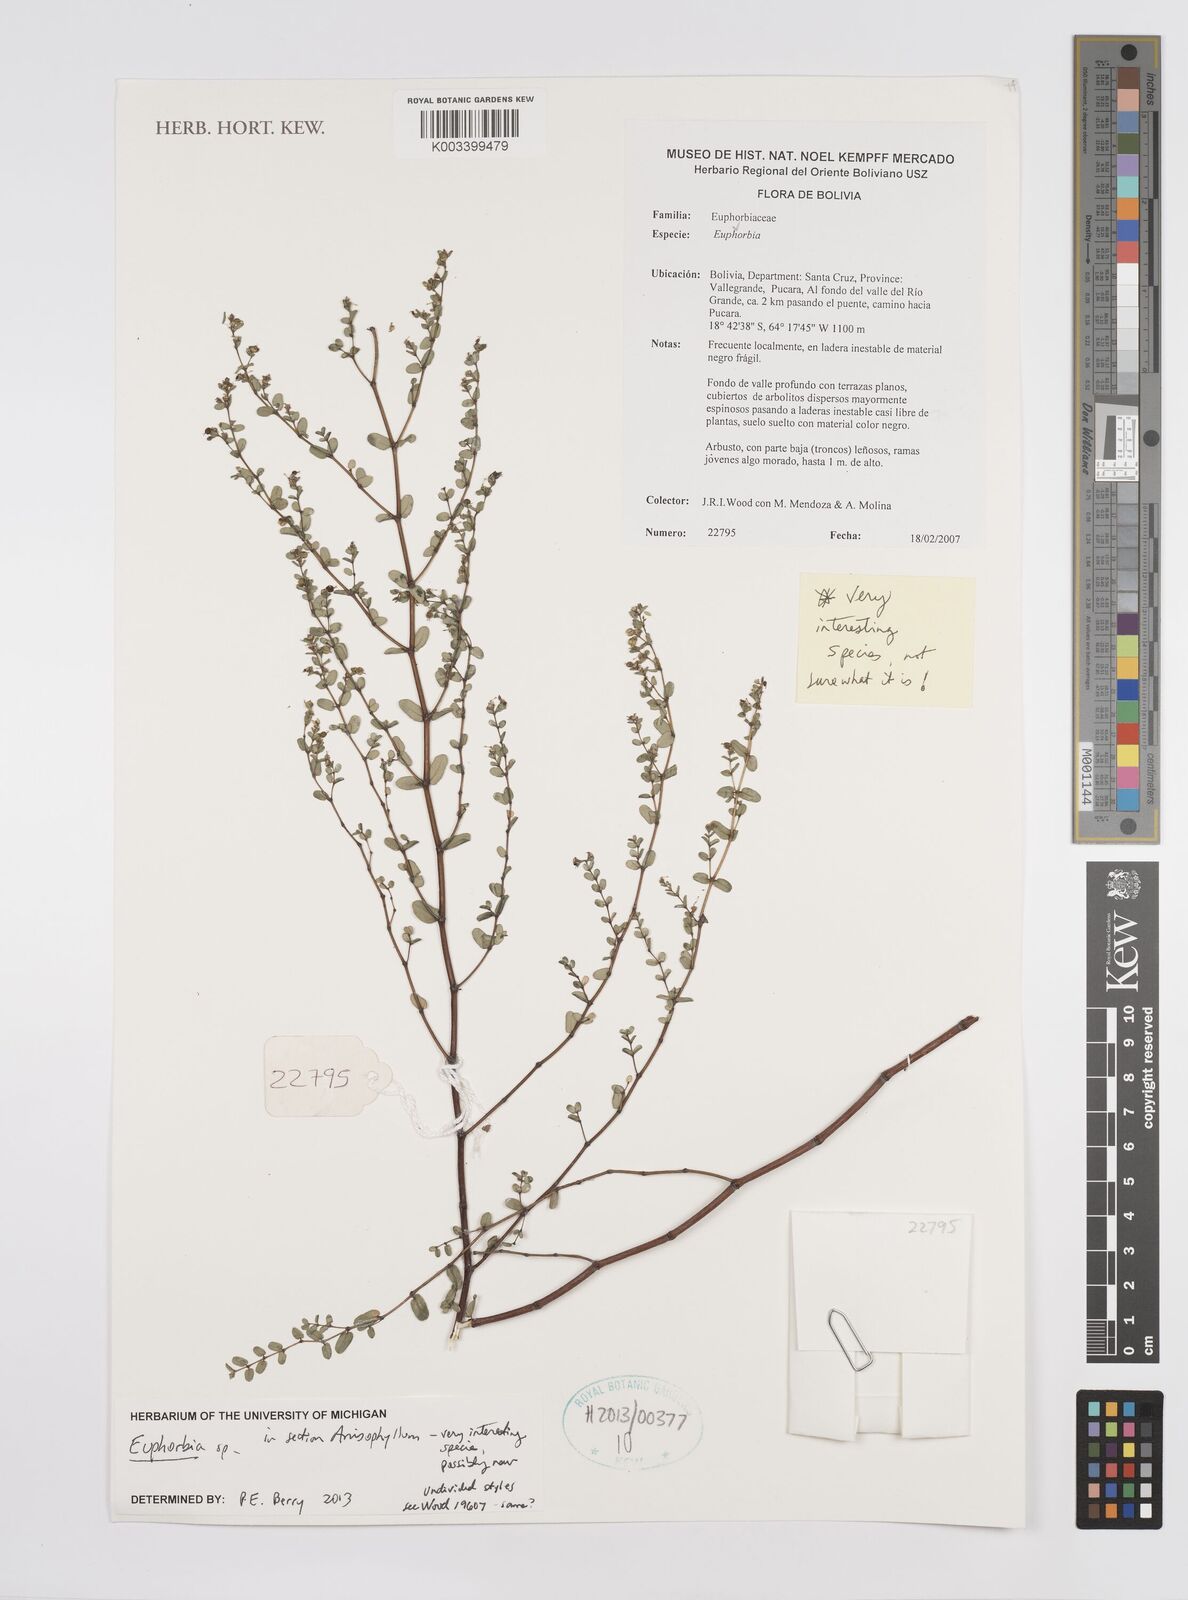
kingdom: Plantae
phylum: Tracheophyta
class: Magnoliopsida
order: Malpighiales
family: Euphorbiaceae
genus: Euphorbia
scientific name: Euphorbia
